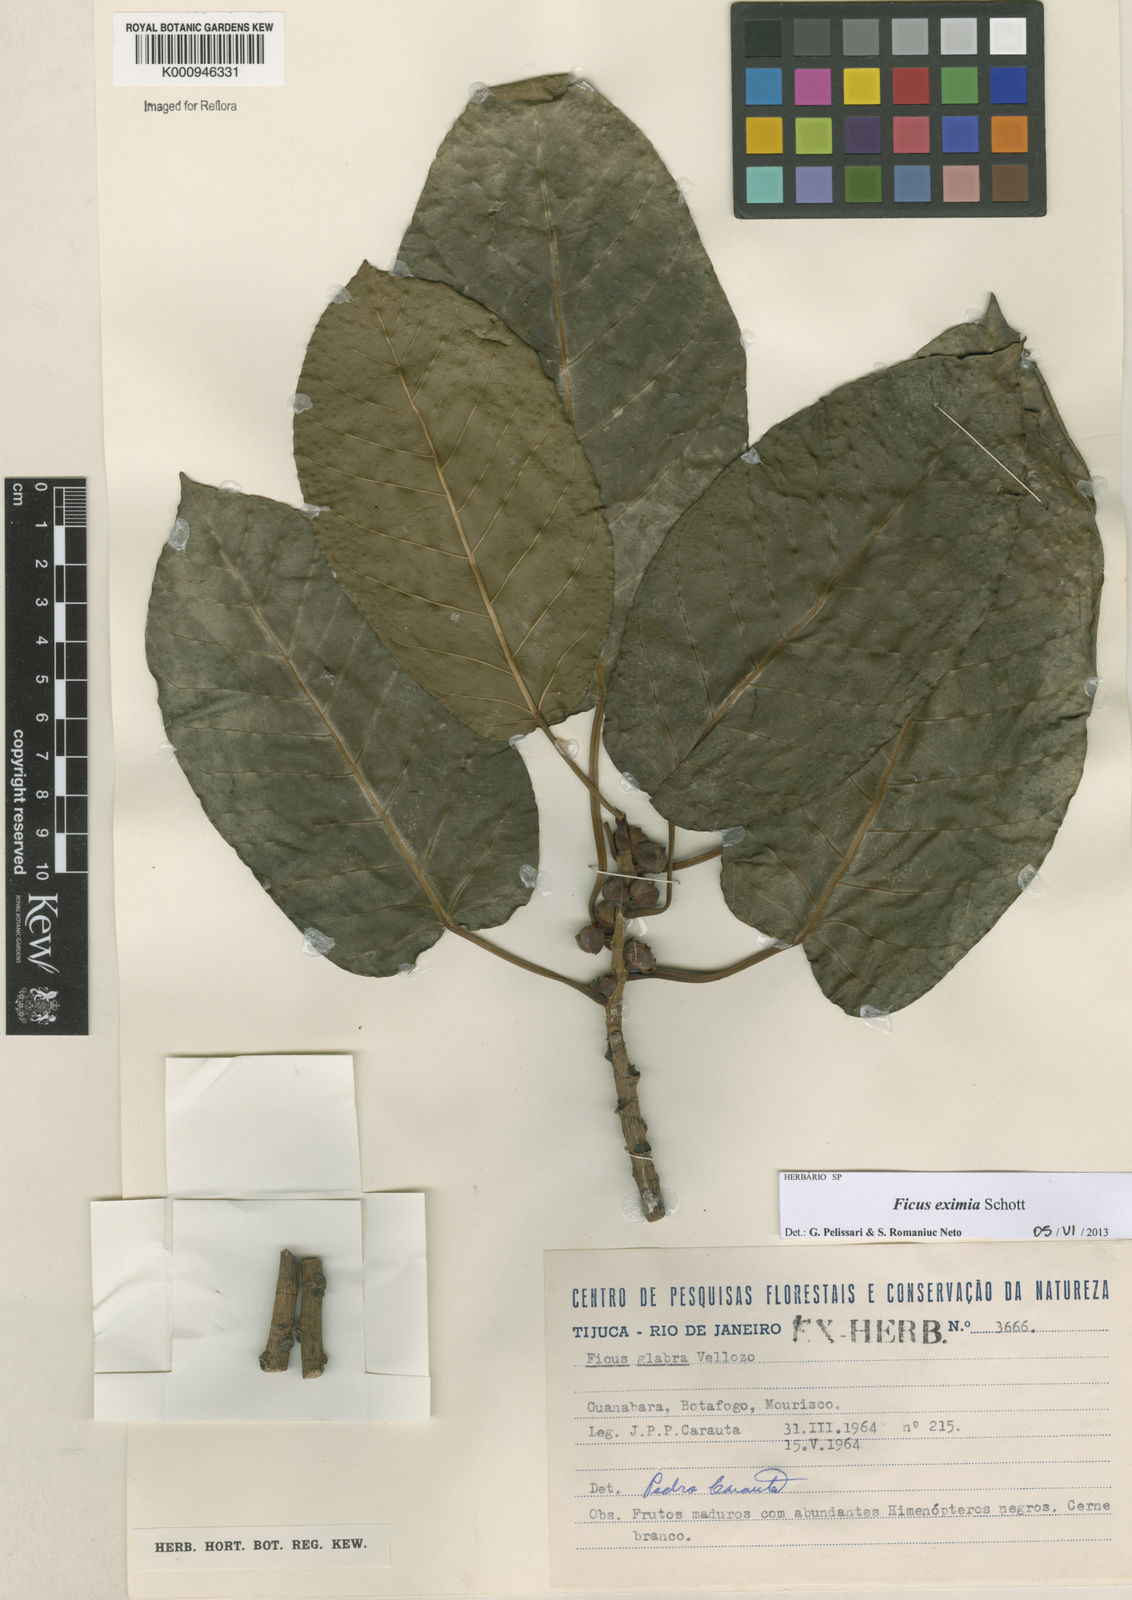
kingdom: Plantae
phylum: Tracheophyta
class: Magnoliopsida
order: Rosales
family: Moraceae
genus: Ficus
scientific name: Ficus eximia
